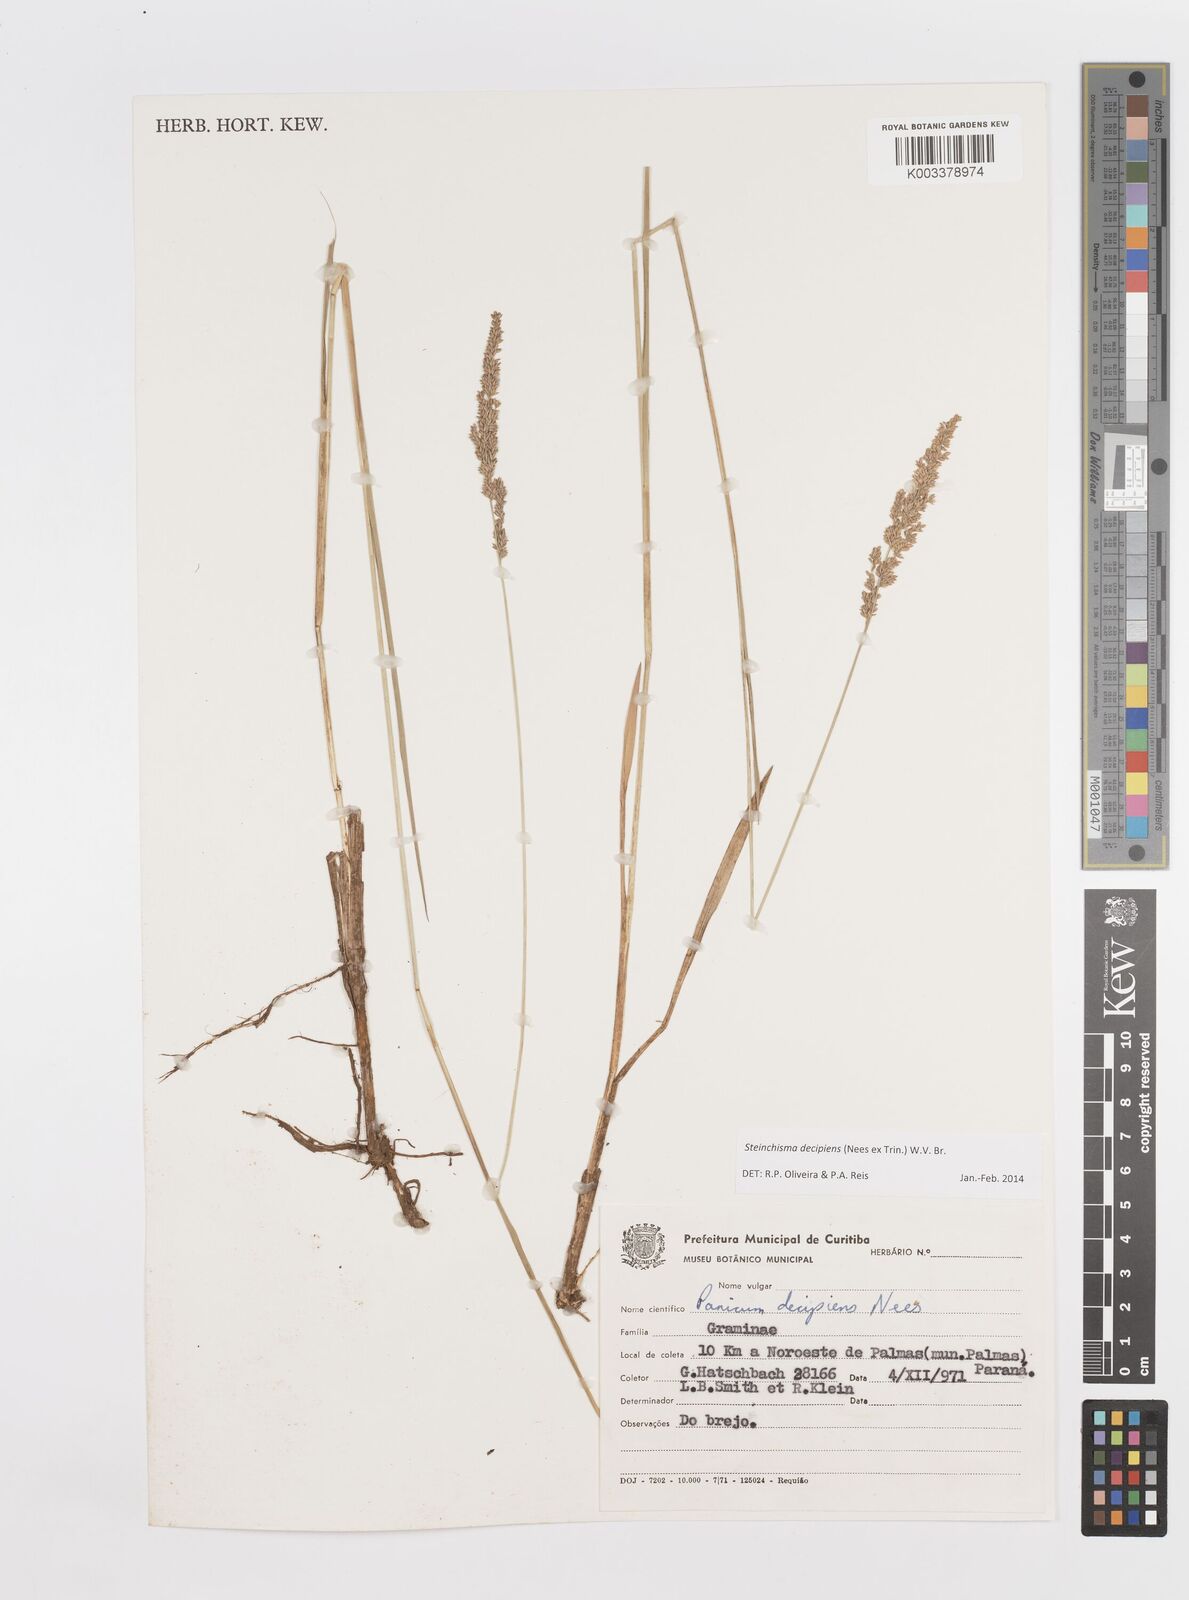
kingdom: Plantae
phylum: Tracheophyta
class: Liliopsida
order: Poales
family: Poaceae
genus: Steinchisma
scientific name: Steinchisma decipiens
